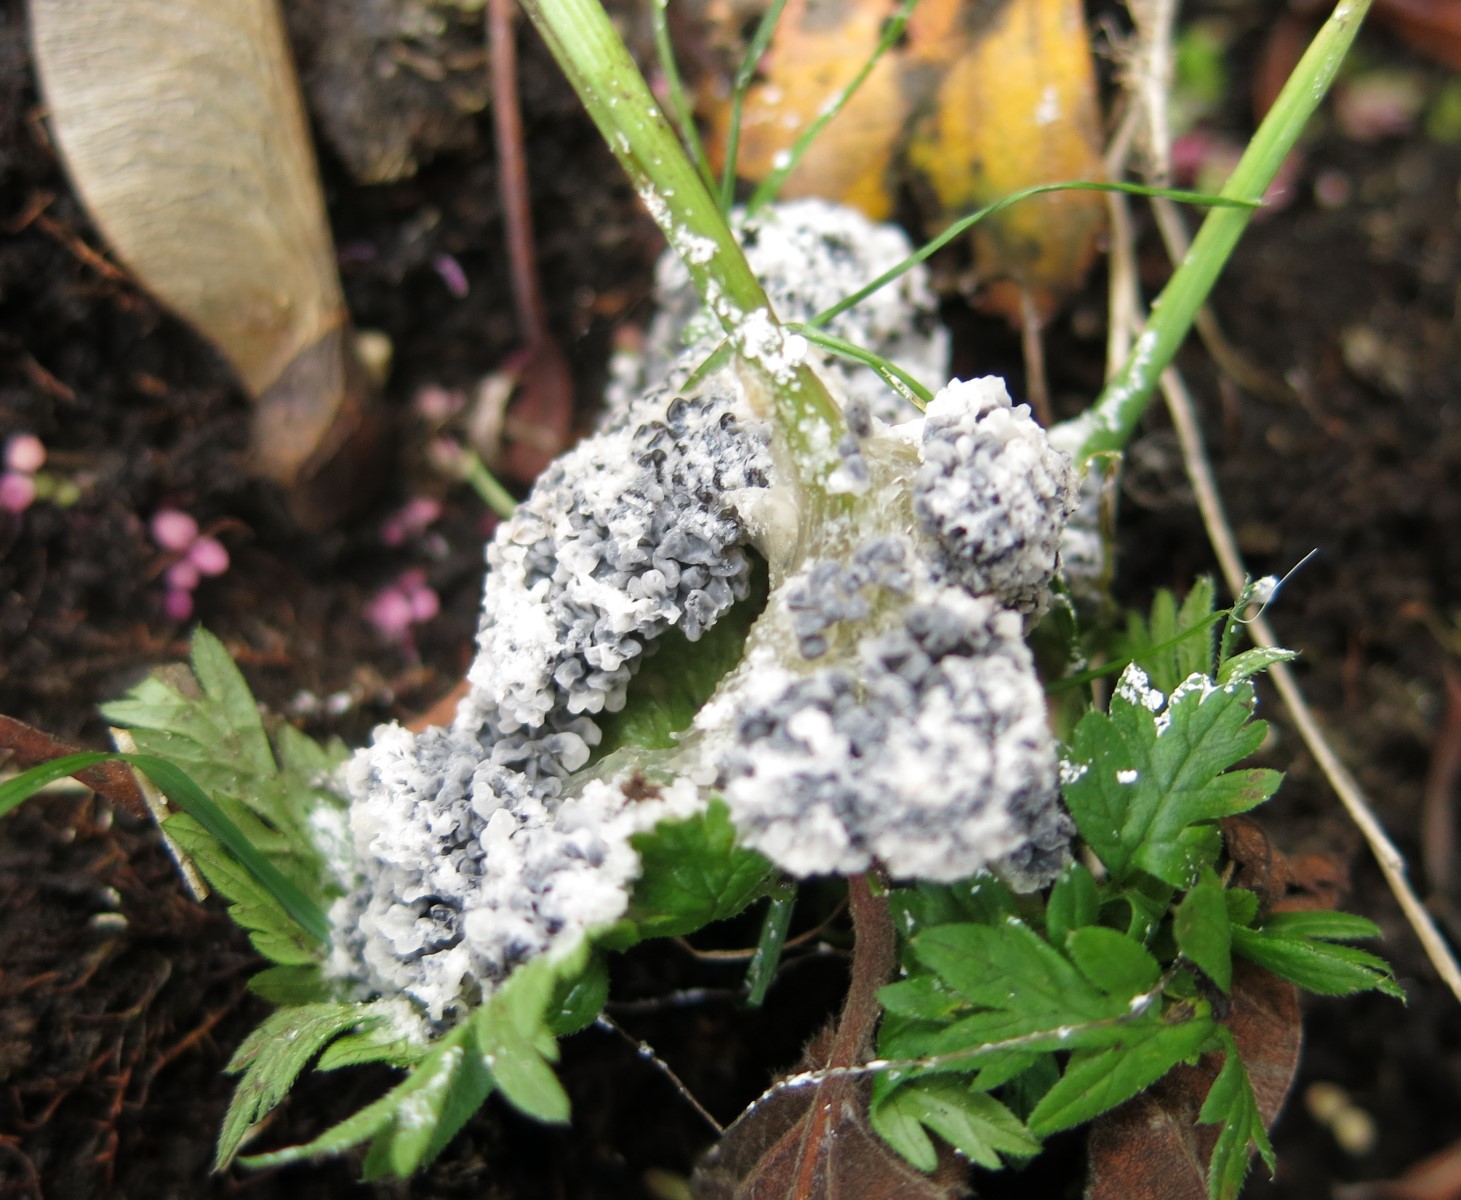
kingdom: Protozoa
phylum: Mycetozoa
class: Myxomycetes
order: Physarales
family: Physaraceae
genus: Didymium
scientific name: Didymium
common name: urteskum
